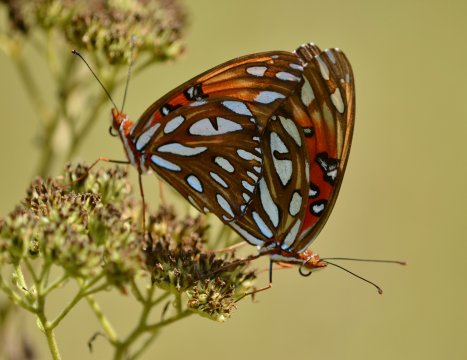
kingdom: Animalia
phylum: Arthropoda
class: Insecta
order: Lepidoptera
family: Nymphalidae
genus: Dione
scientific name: Dione vanillae
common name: Gulf Fritillary
